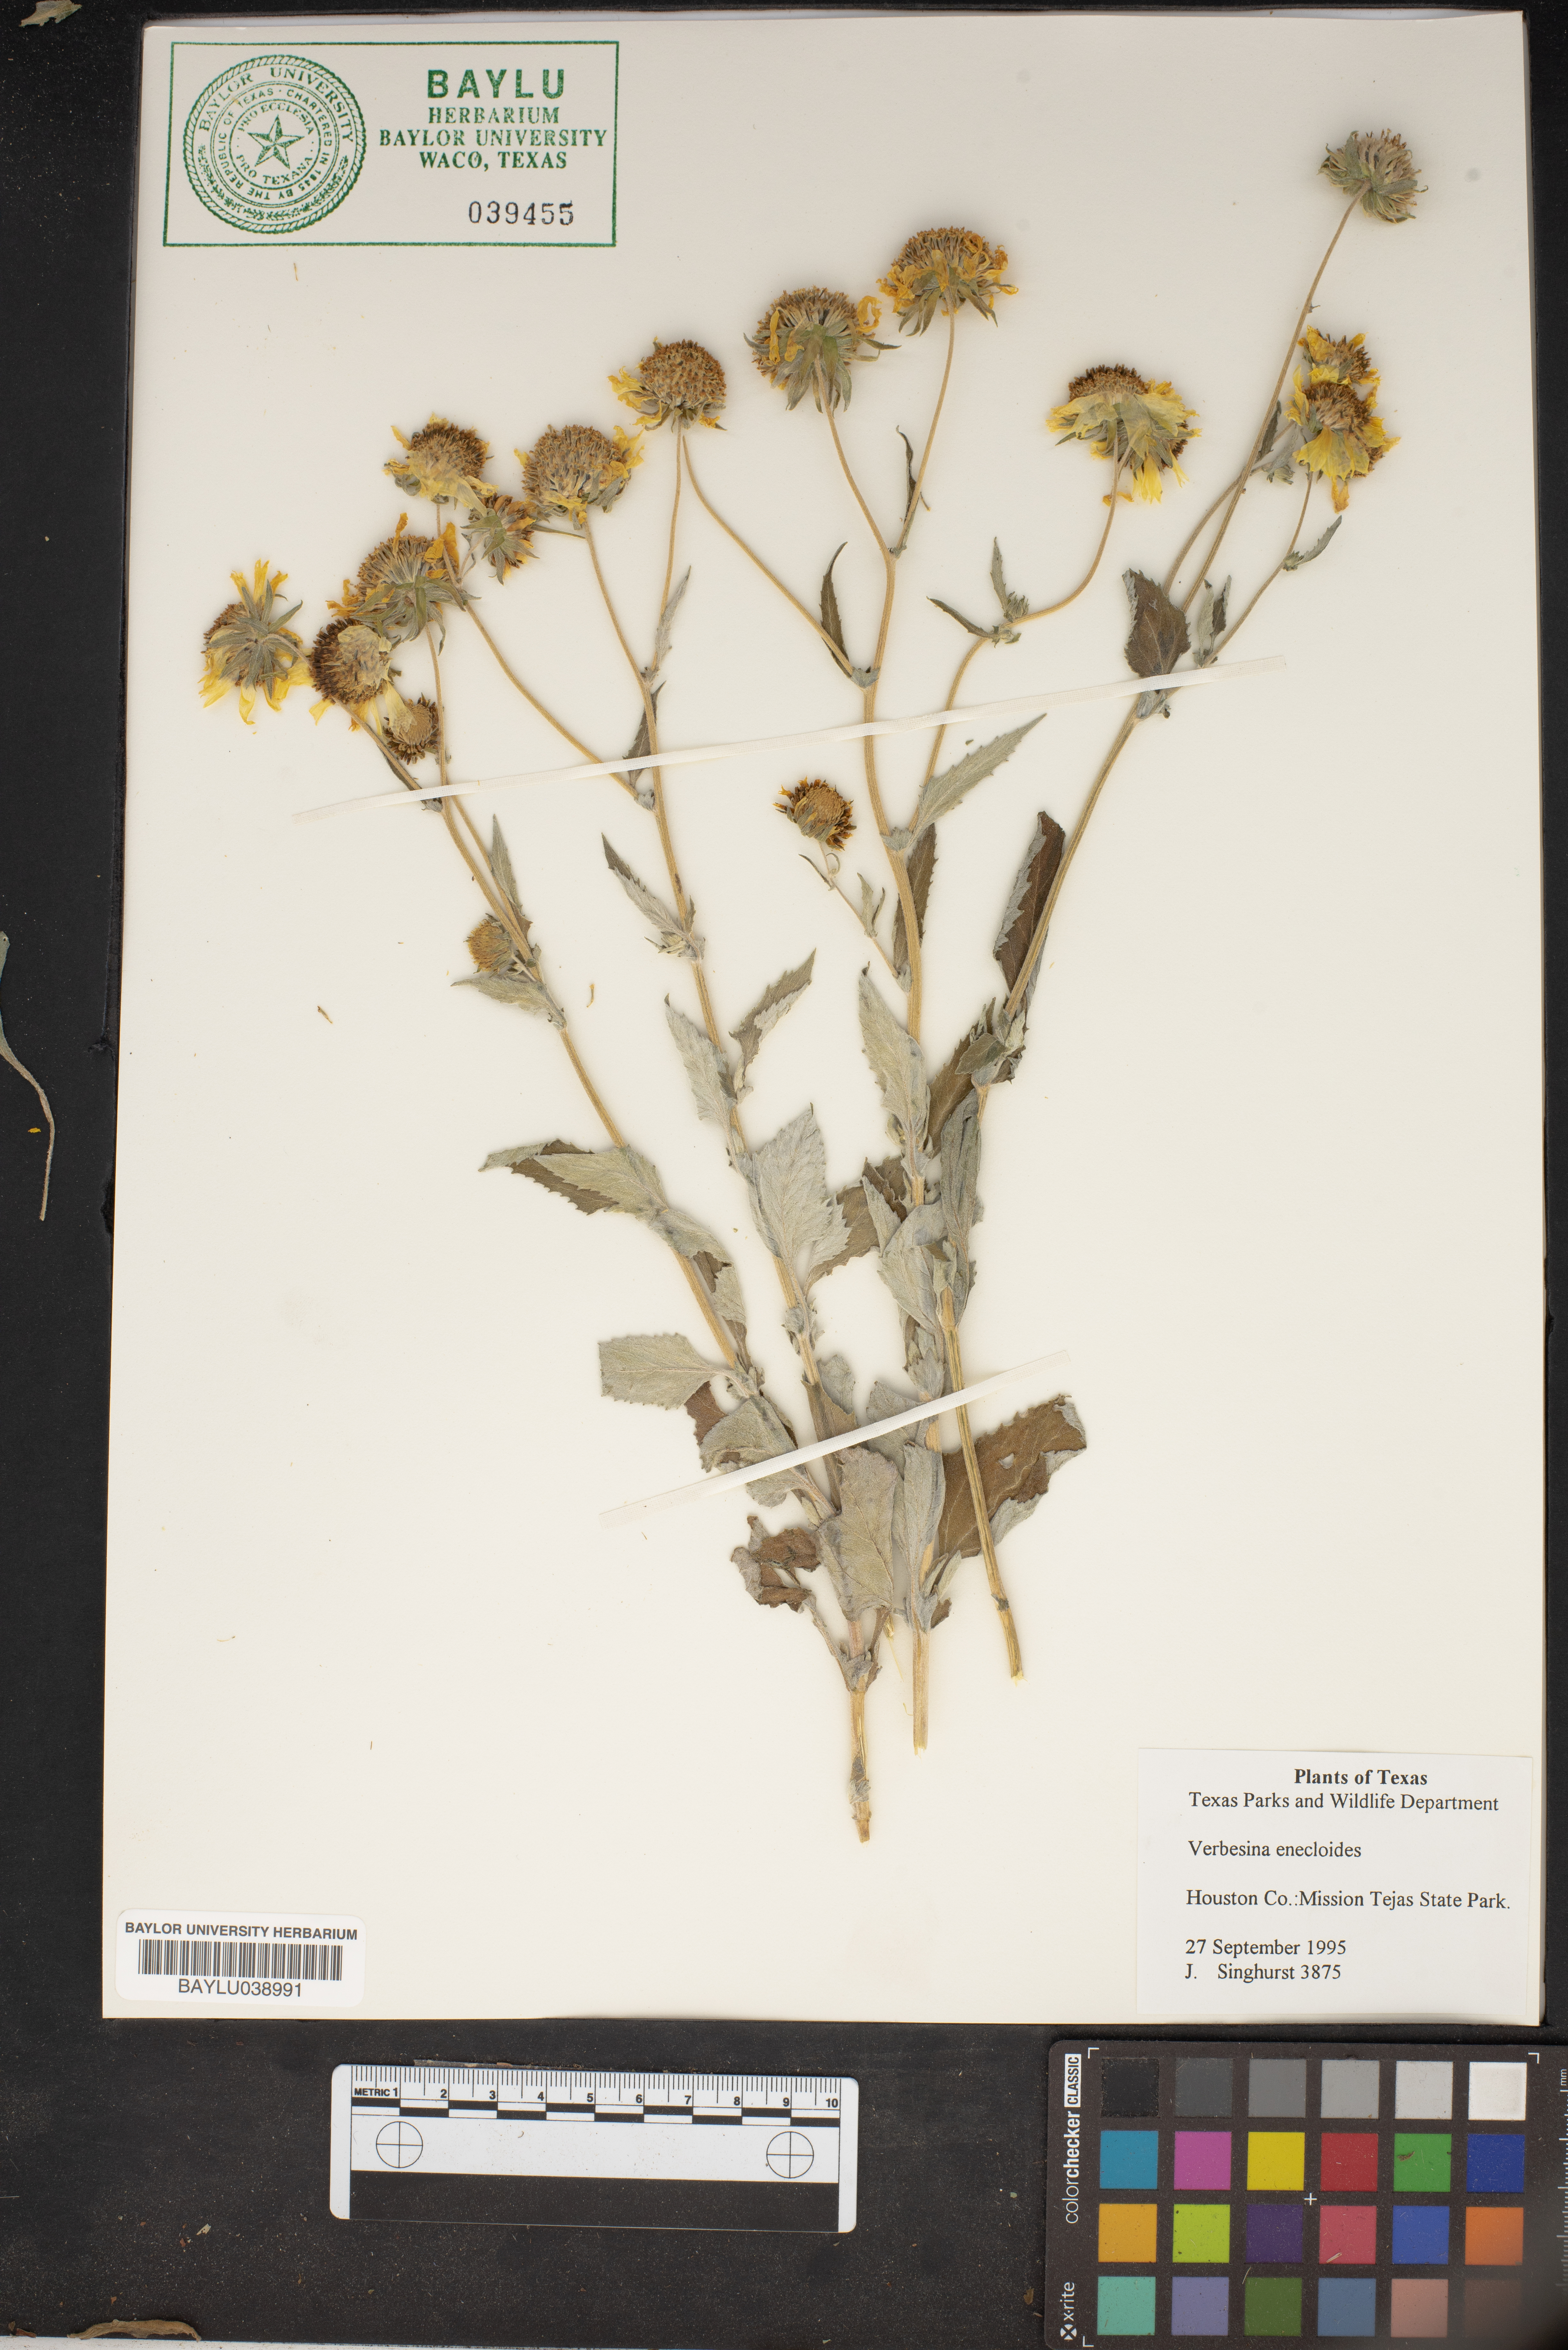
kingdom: Plantae
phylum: Tracheophyta
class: Magnoliopsida
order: Asterales
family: Asteraceae
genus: Verbesina
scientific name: Verbesina encelioides
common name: Golden crownbeard
